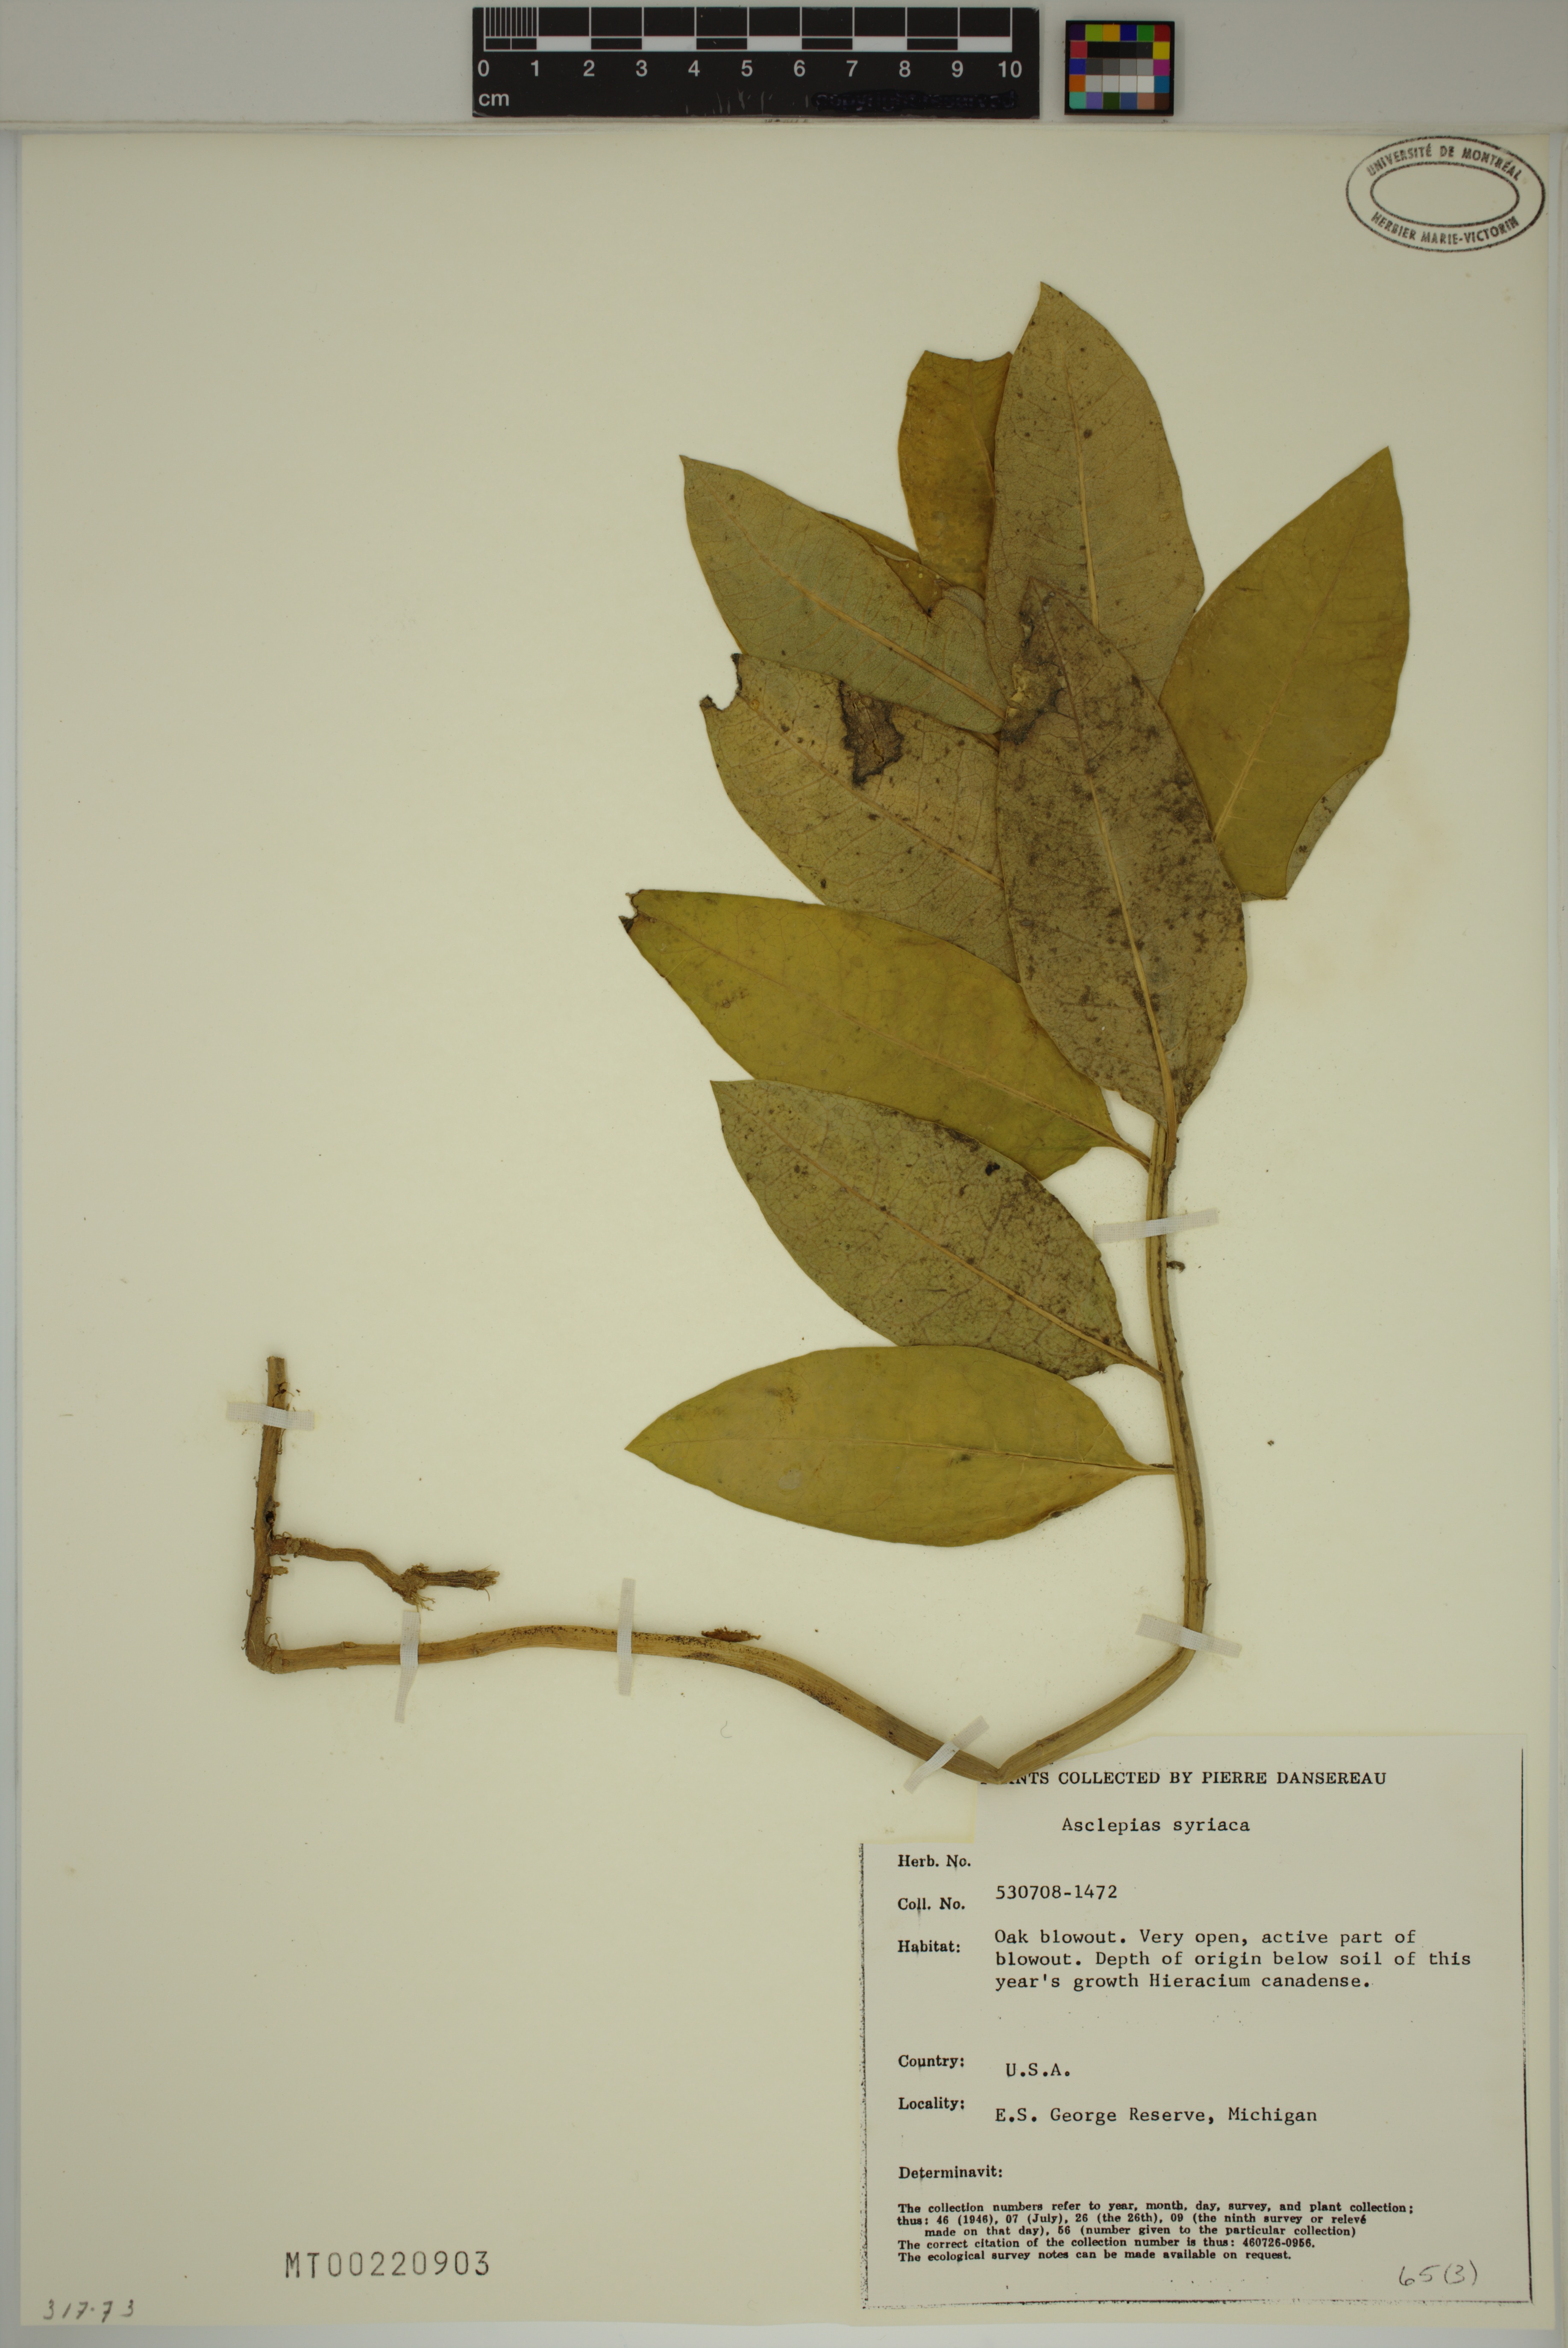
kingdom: Plantae
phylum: Tracheophyta
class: Magnoliopsida
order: Gentianales
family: Apocynaceae
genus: Asclepias
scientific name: Asclepias syriaca
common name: Common milkweed
